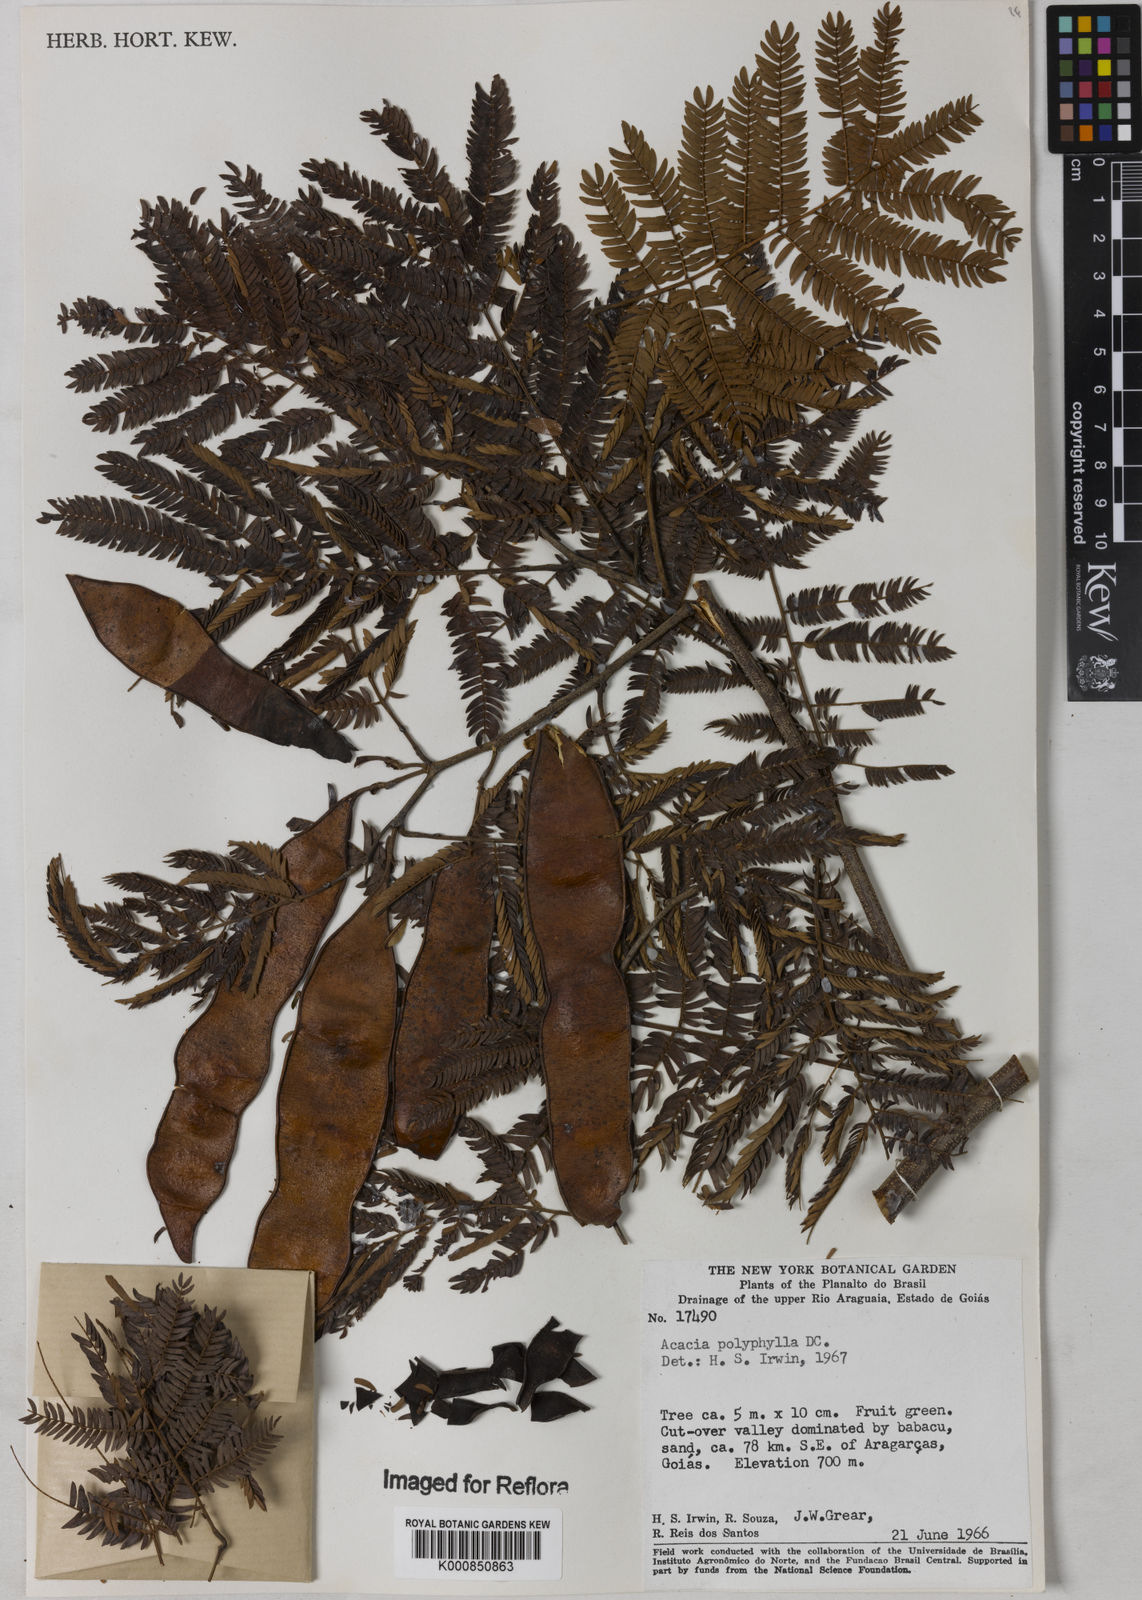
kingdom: Plantae
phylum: Tracheophyta
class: Magnoliopsida
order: Fabales
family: Fabaceae
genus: Senegalia
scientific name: Senegalia polyphylla
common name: White-tamarind
